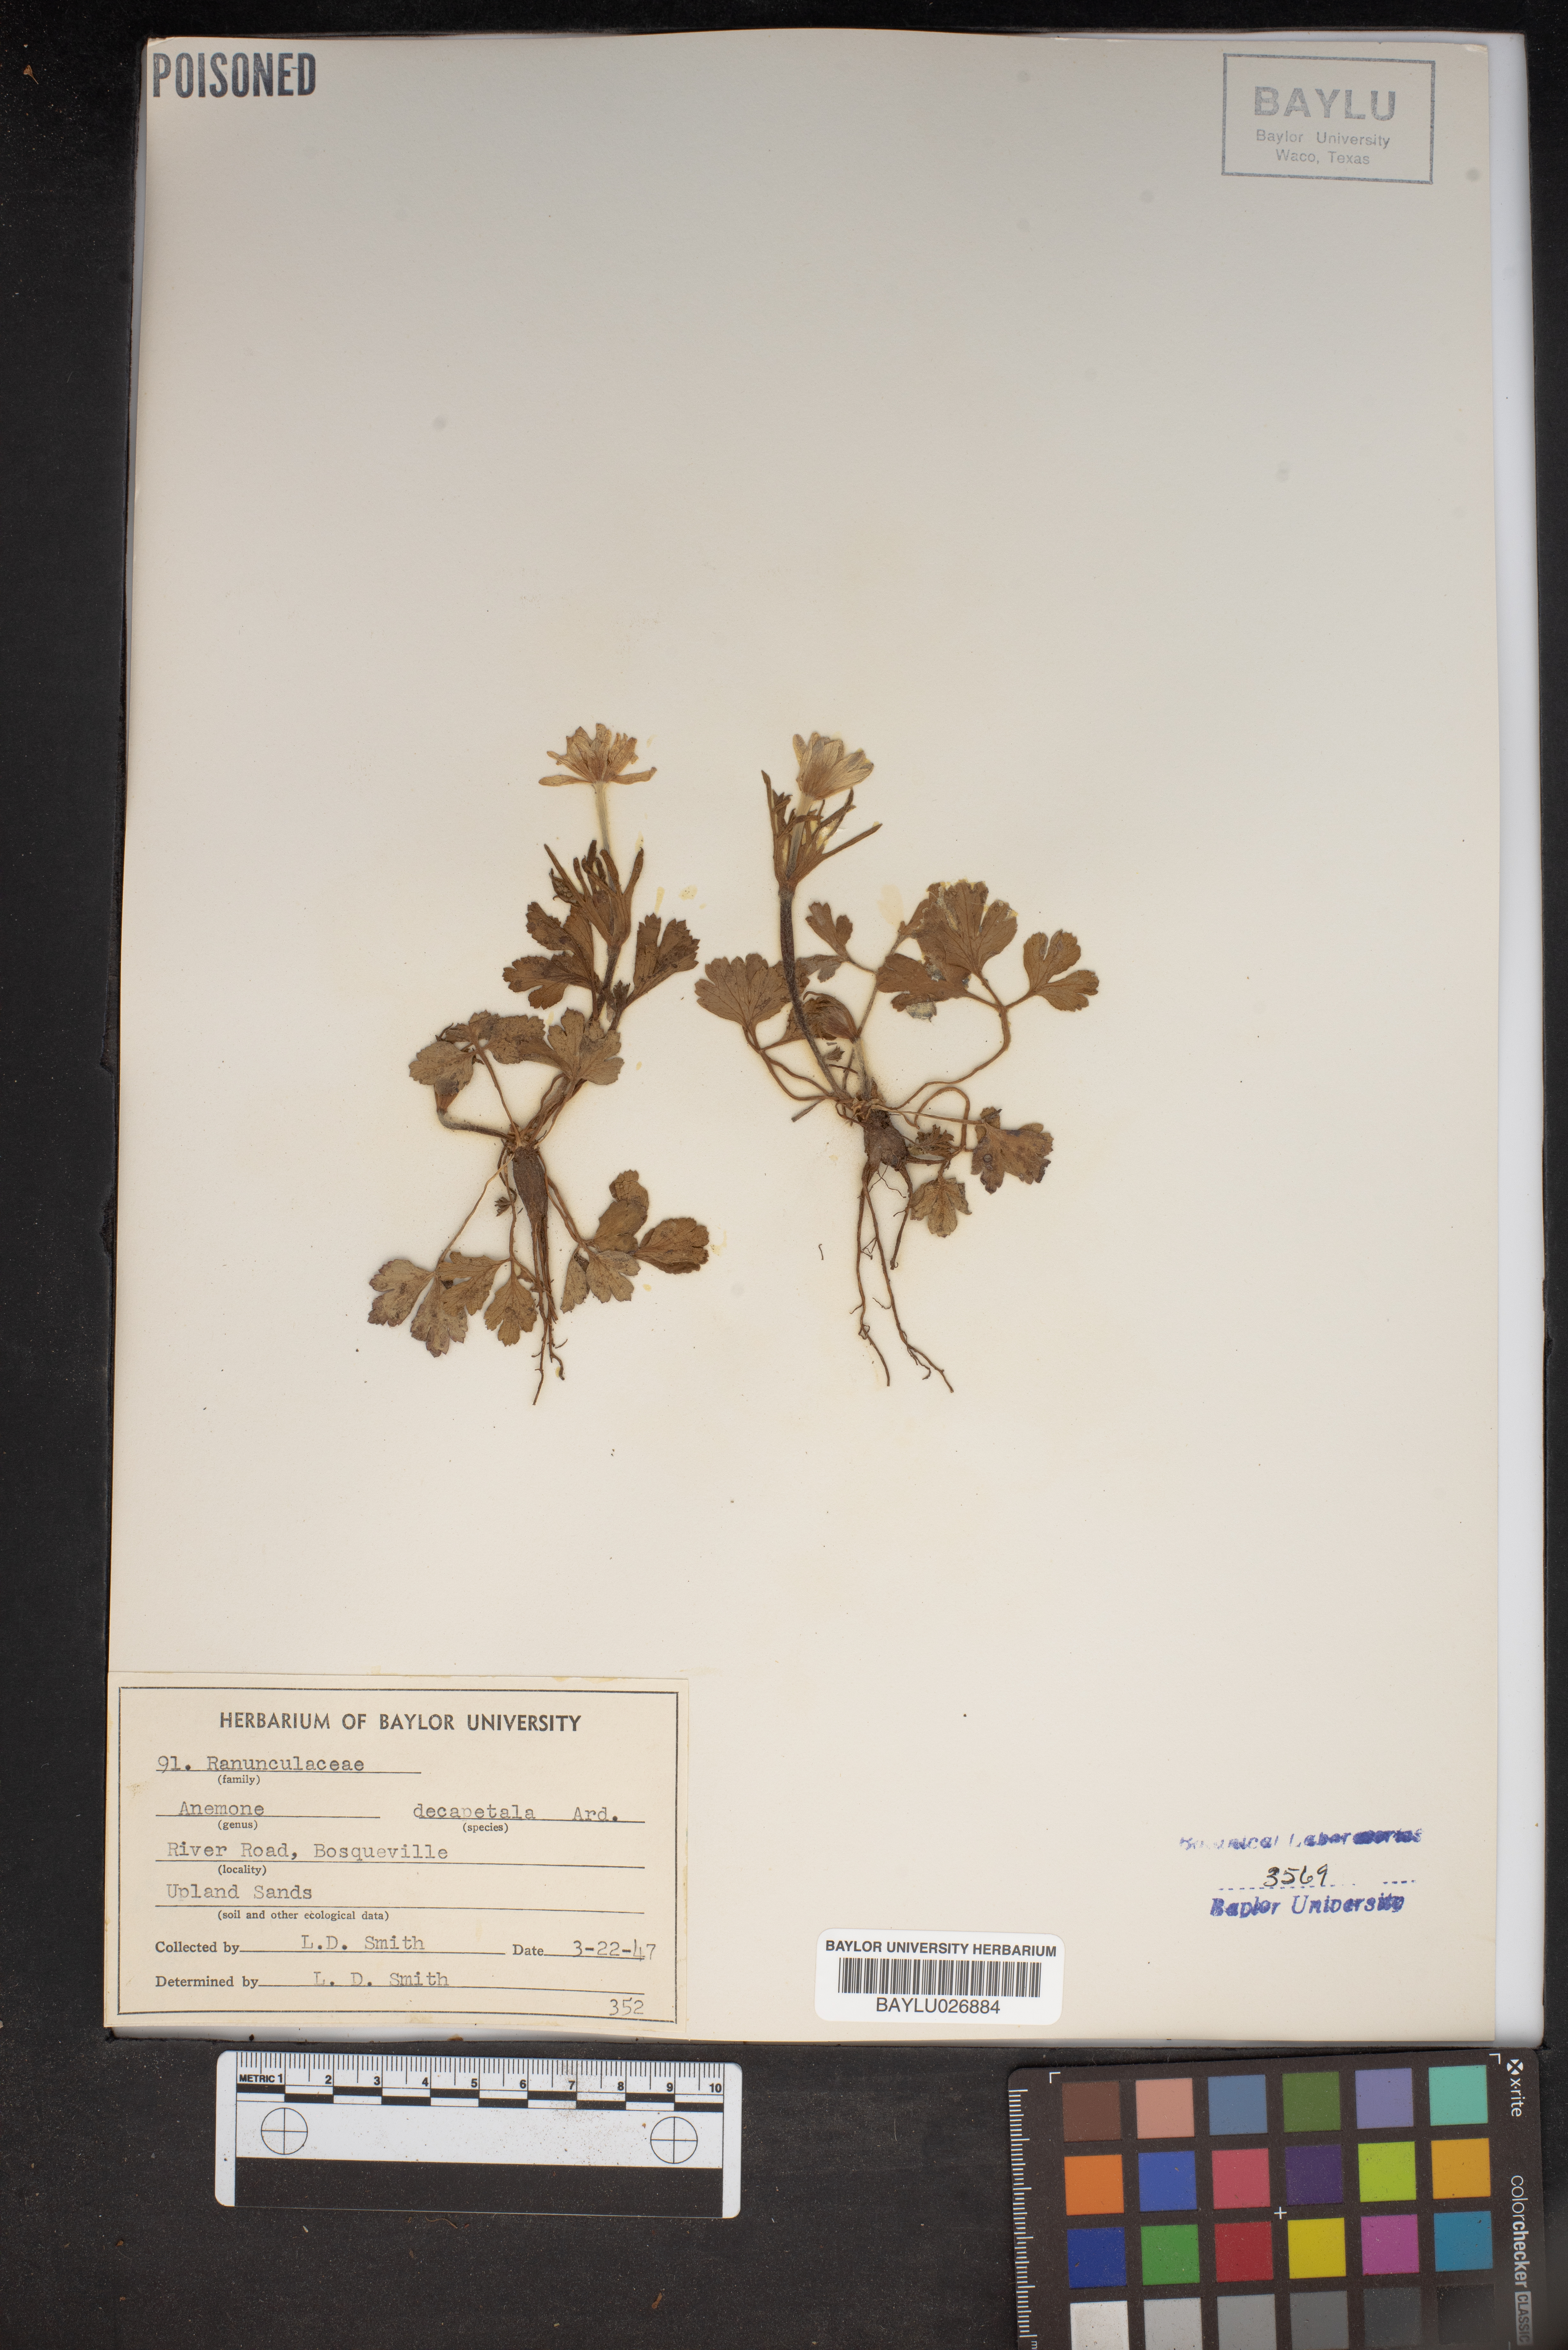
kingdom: Plantae
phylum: Tracheophyta
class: Magnoliopsida
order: Ranunculales
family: Ranunculaceae
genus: Anemone
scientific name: Anemone decapetala
